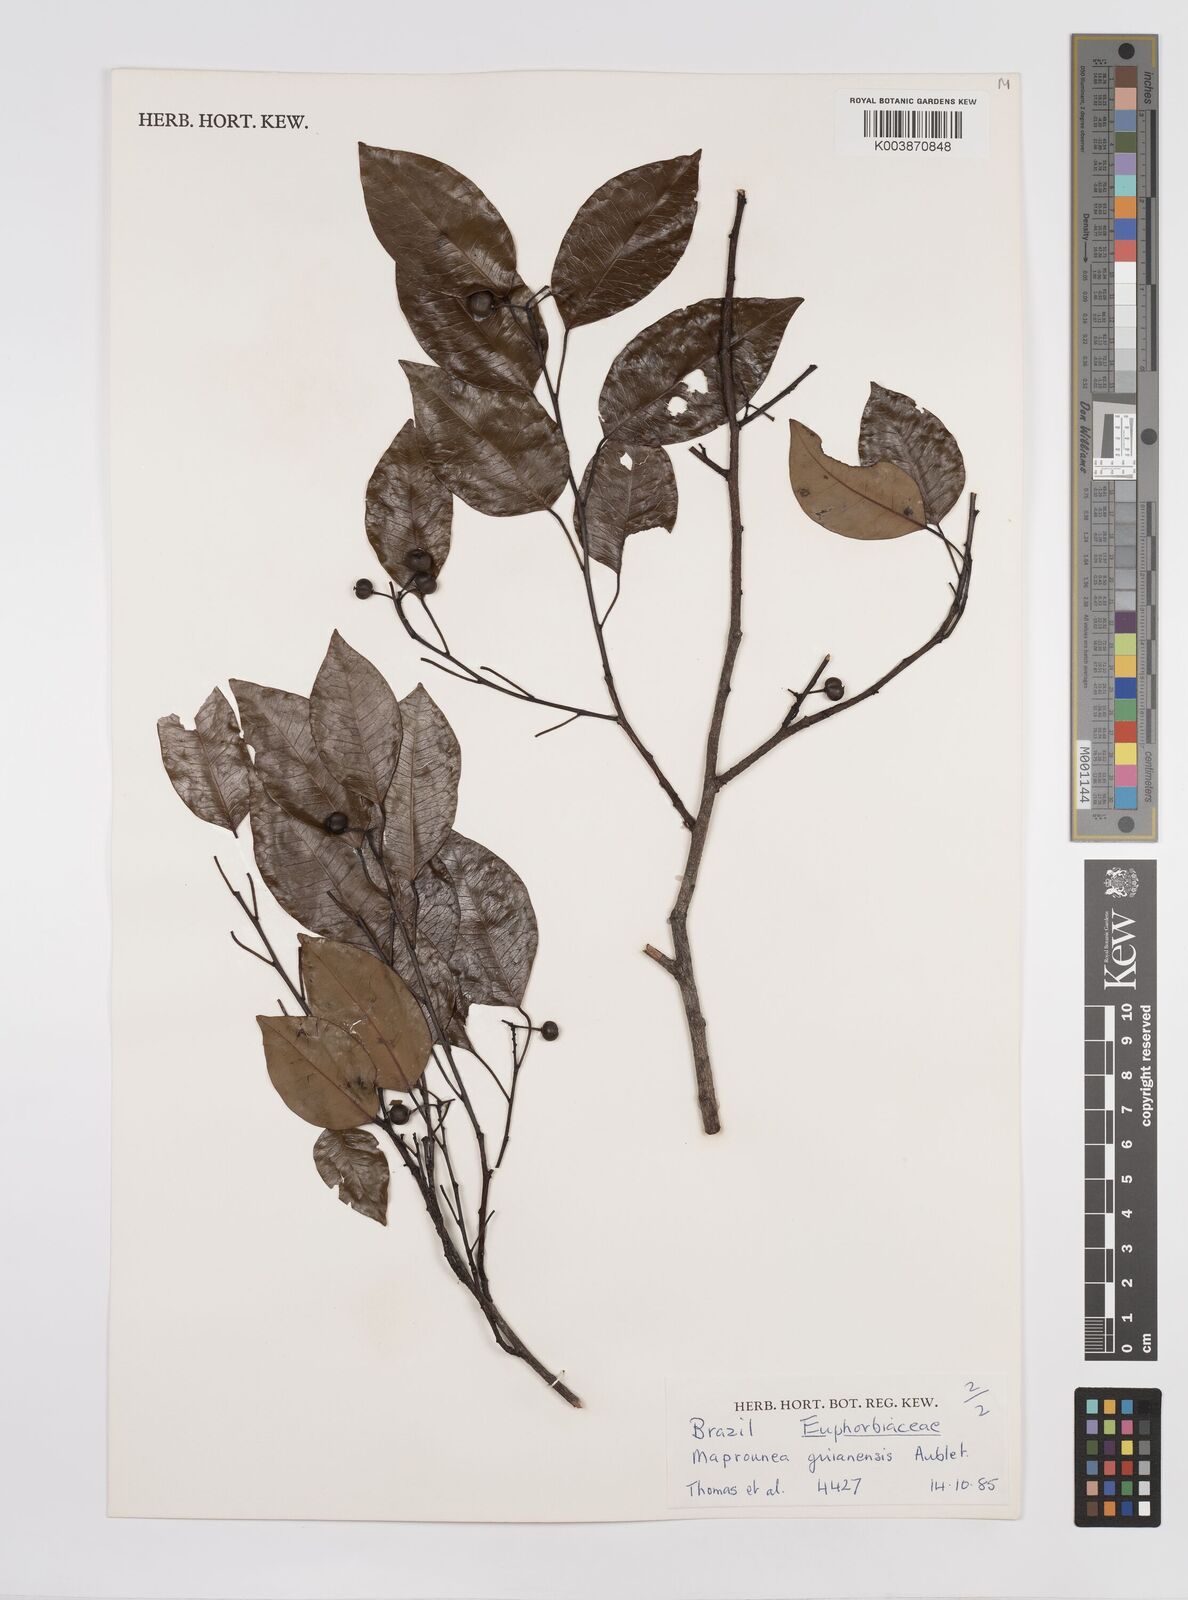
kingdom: Plantae
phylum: Tracheophyta
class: Magnoliopsida
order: Malpighiales
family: Euphorbiaceae
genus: Maprounea
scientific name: Maprounea guianensis
